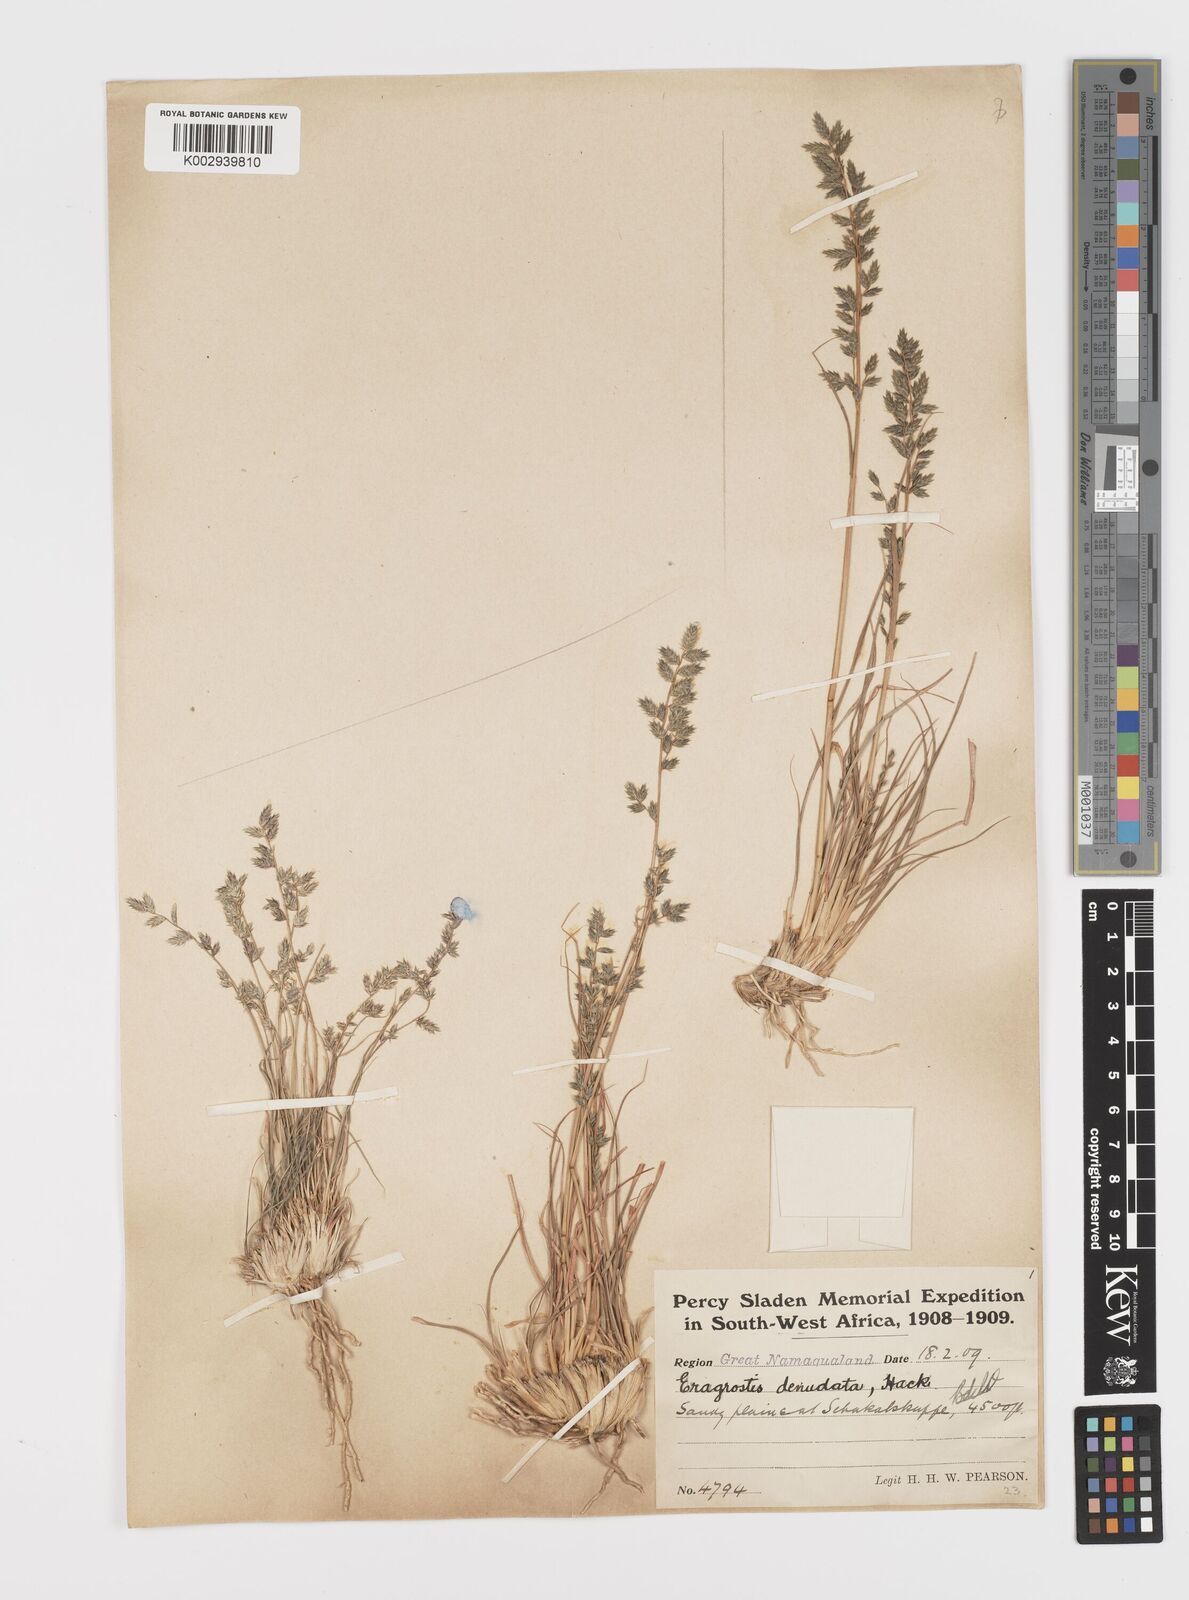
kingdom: Plantae
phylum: Tracheophyta
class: Liliopsida
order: Poales
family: Poaceae
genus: Eragrostis
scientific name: Eragrostis nindensis
